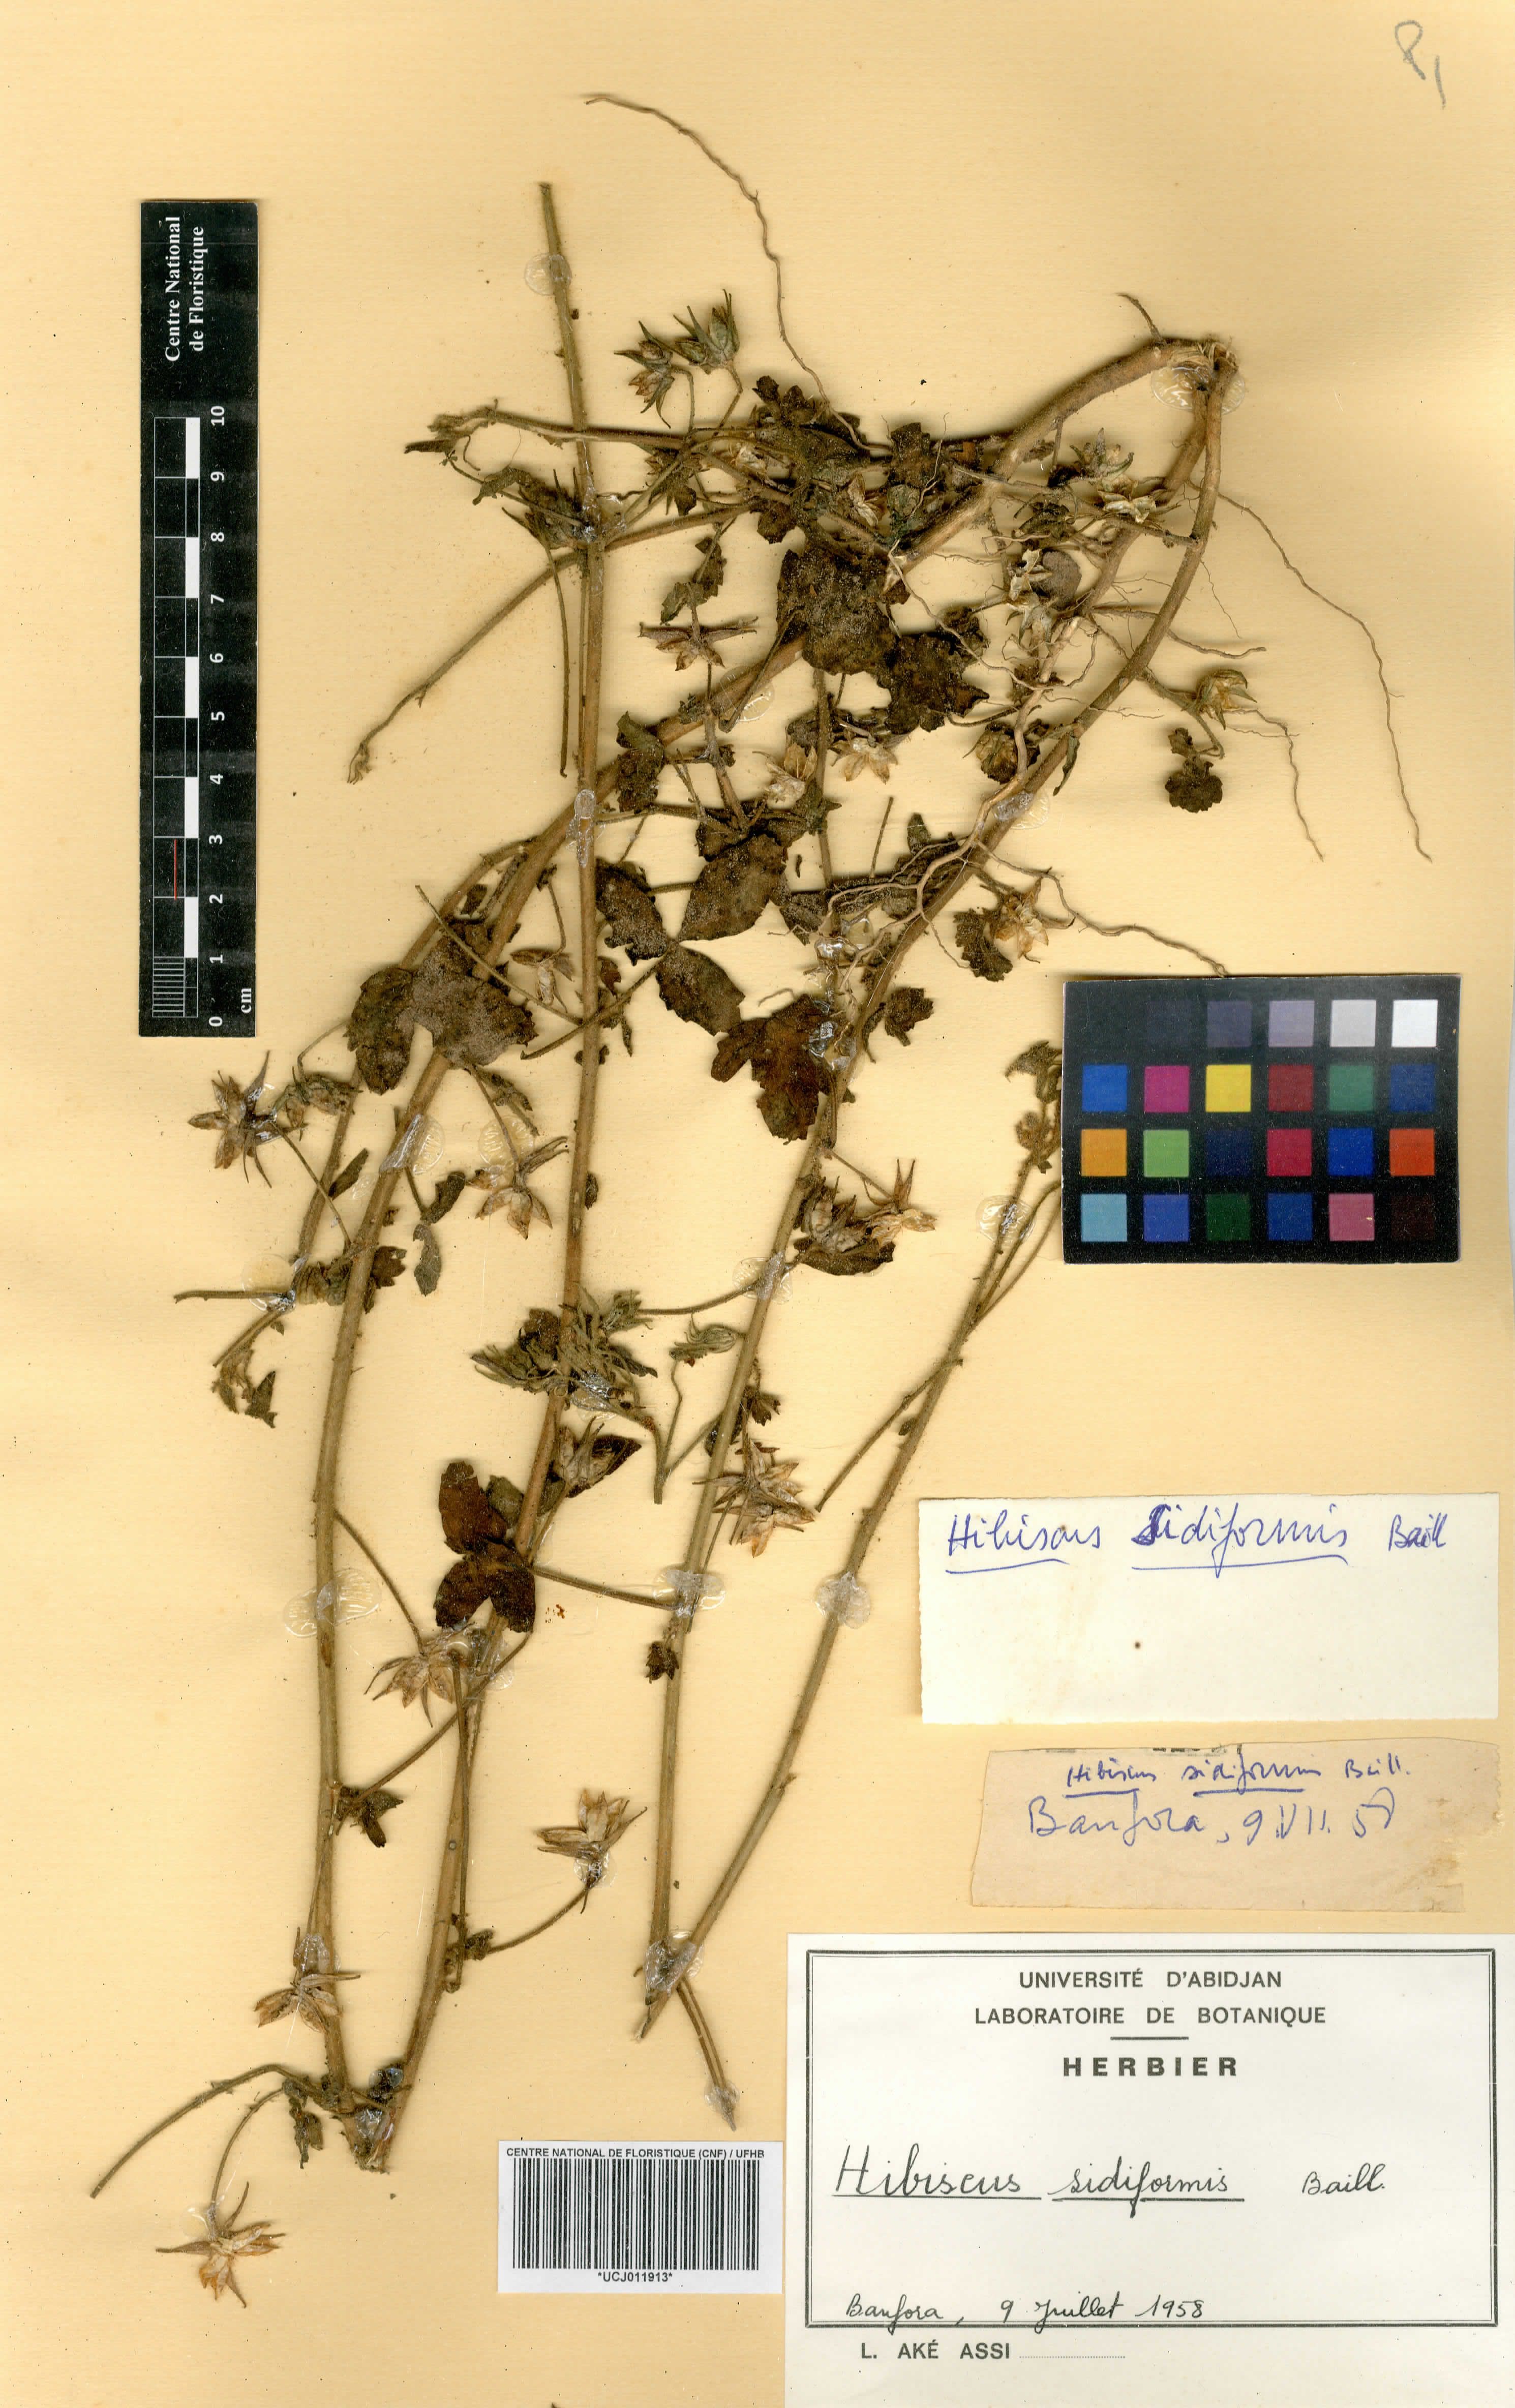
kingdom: Plantae
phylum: Tracheophyta
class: Magnoliopsida
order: Malvales
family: Malvaceae
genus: Hibiscus
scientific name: Hibiscus sidiformis
